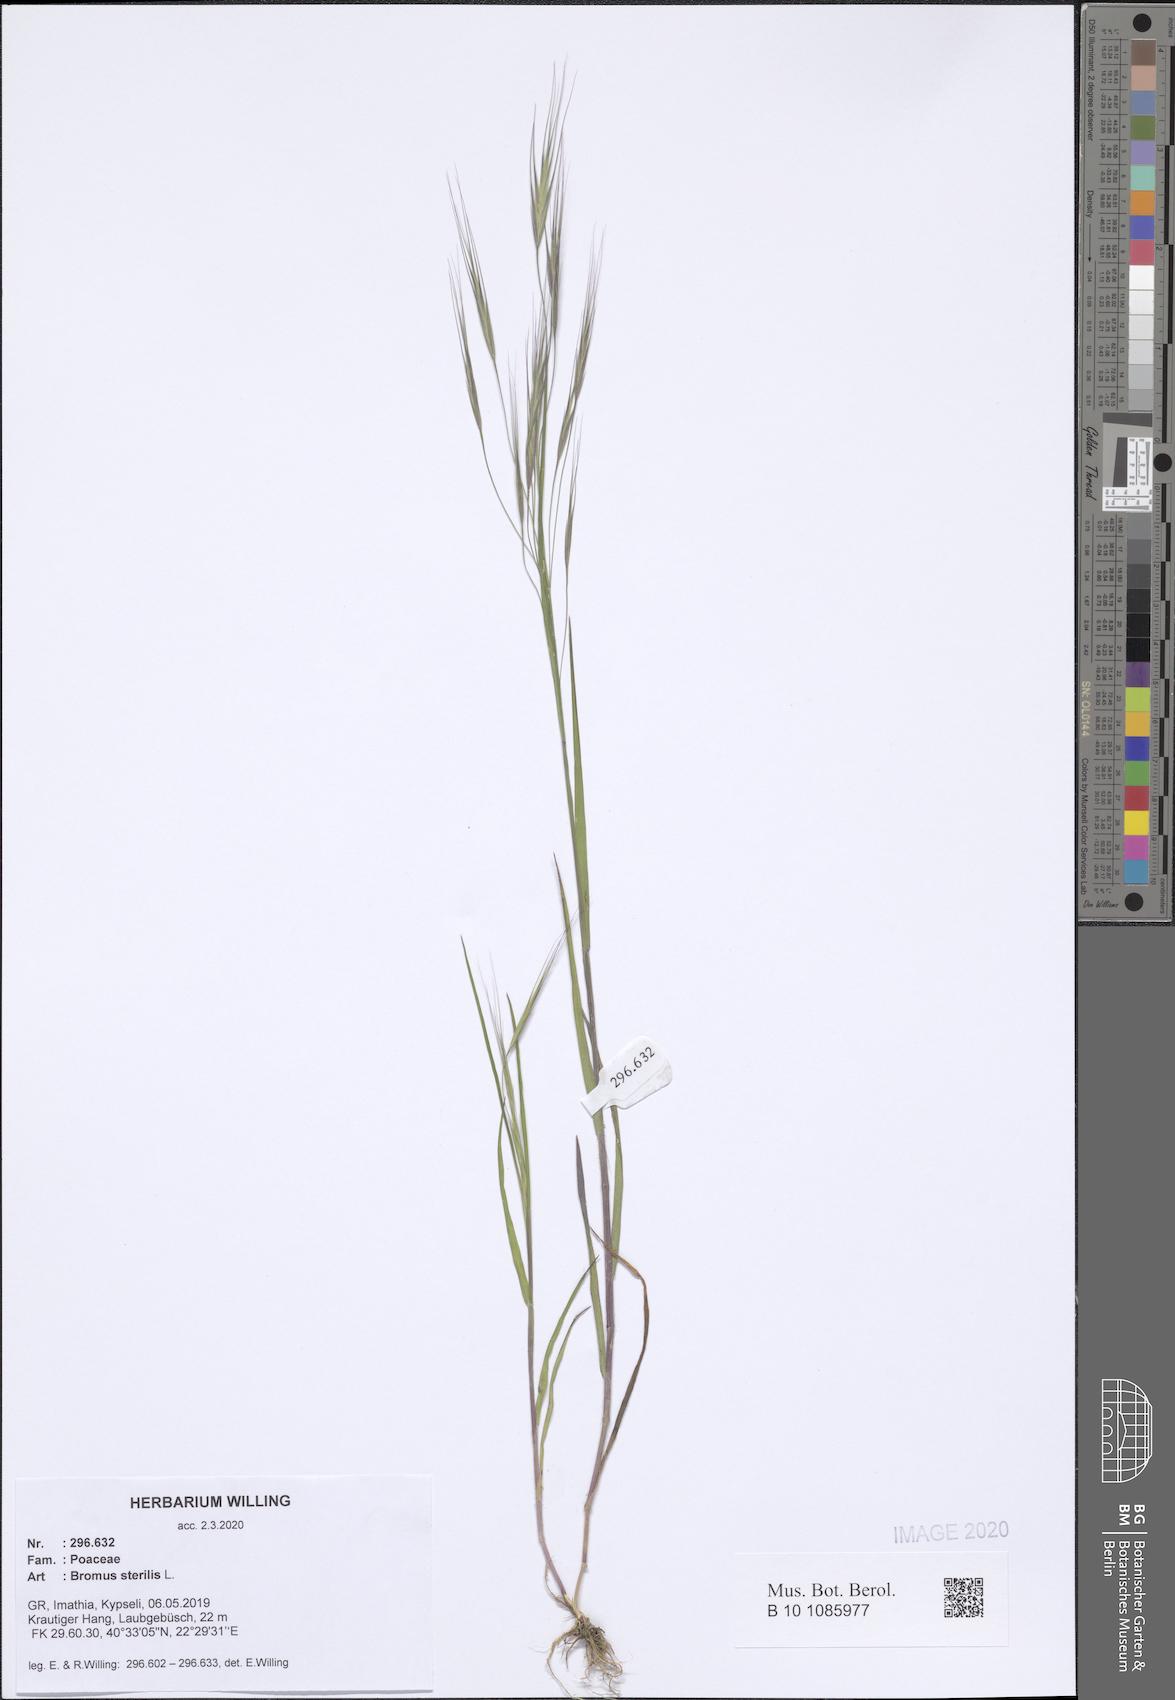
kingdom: Plantae
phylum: Tracheophyta
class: Liliopsida
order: Poales
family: Poaceae
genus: Bromus
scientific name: Bromus sterilis
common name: Poverty brome
